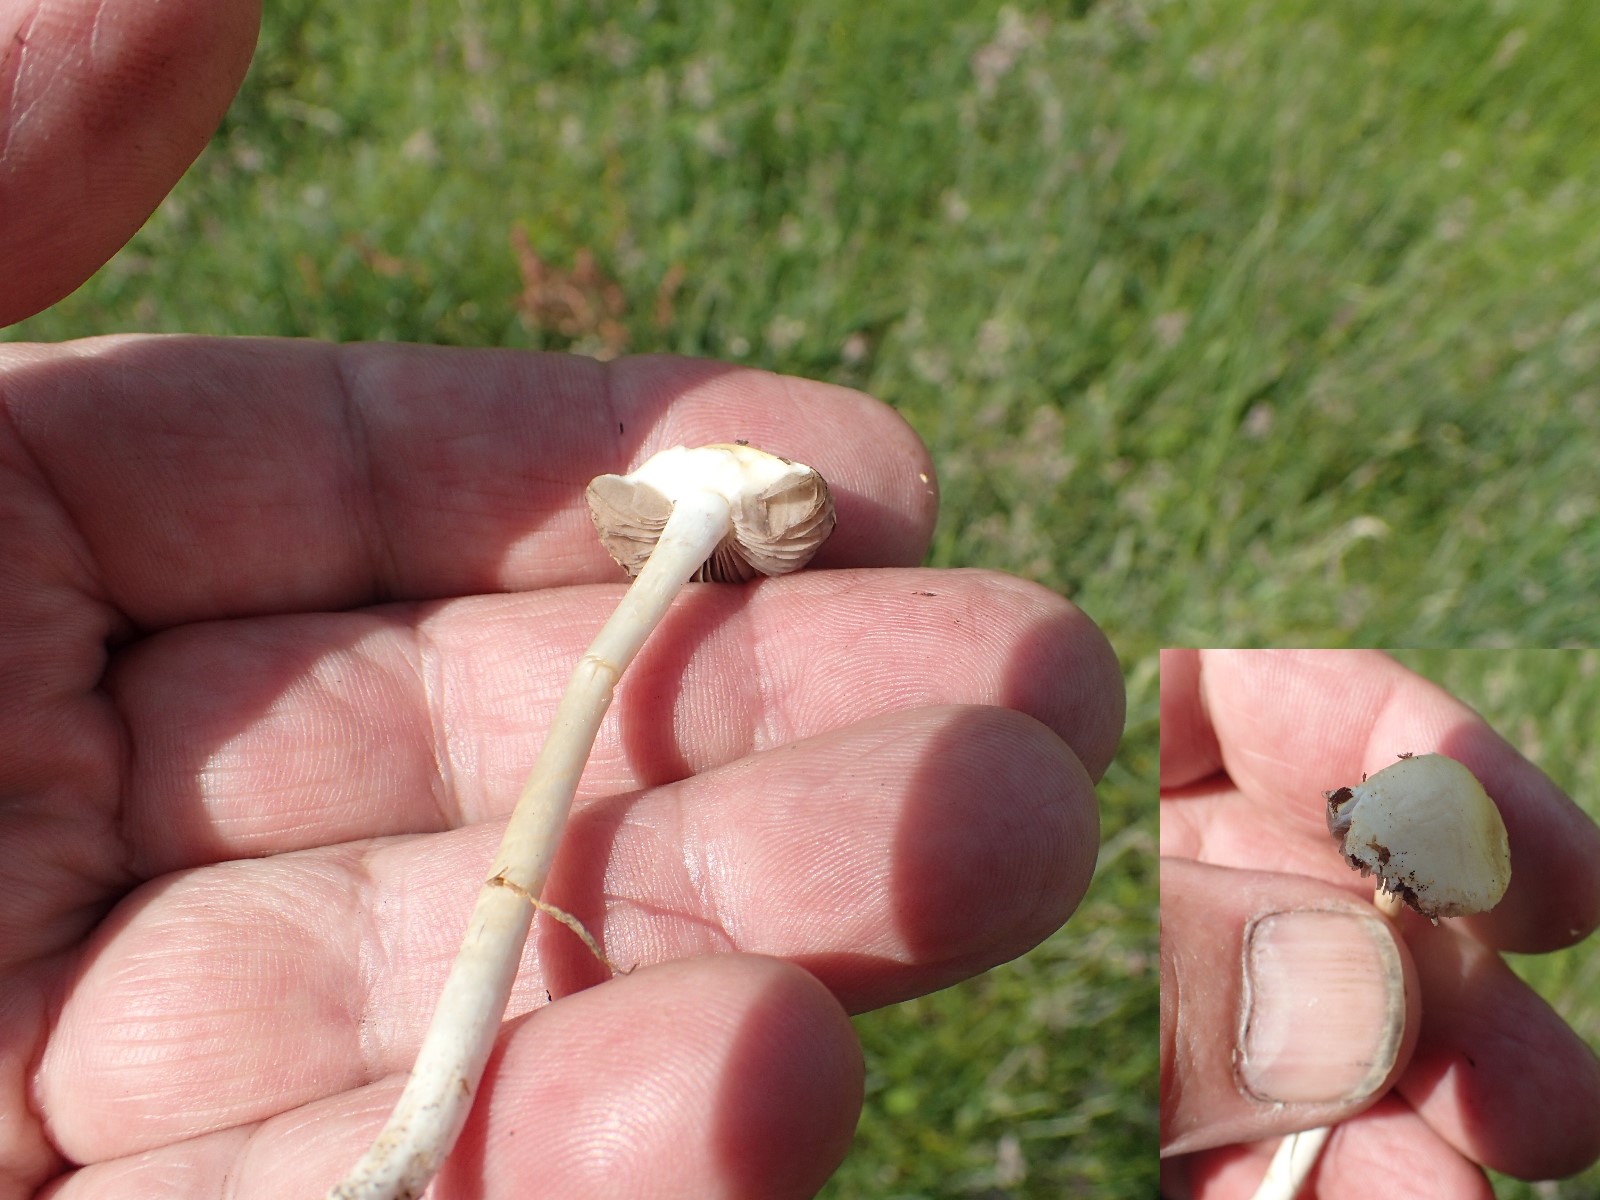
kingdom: Fungi
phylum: Basidiomycota
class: Agaricomycetes
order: Agaricales
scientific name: Agaricales
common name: champignonordenen
